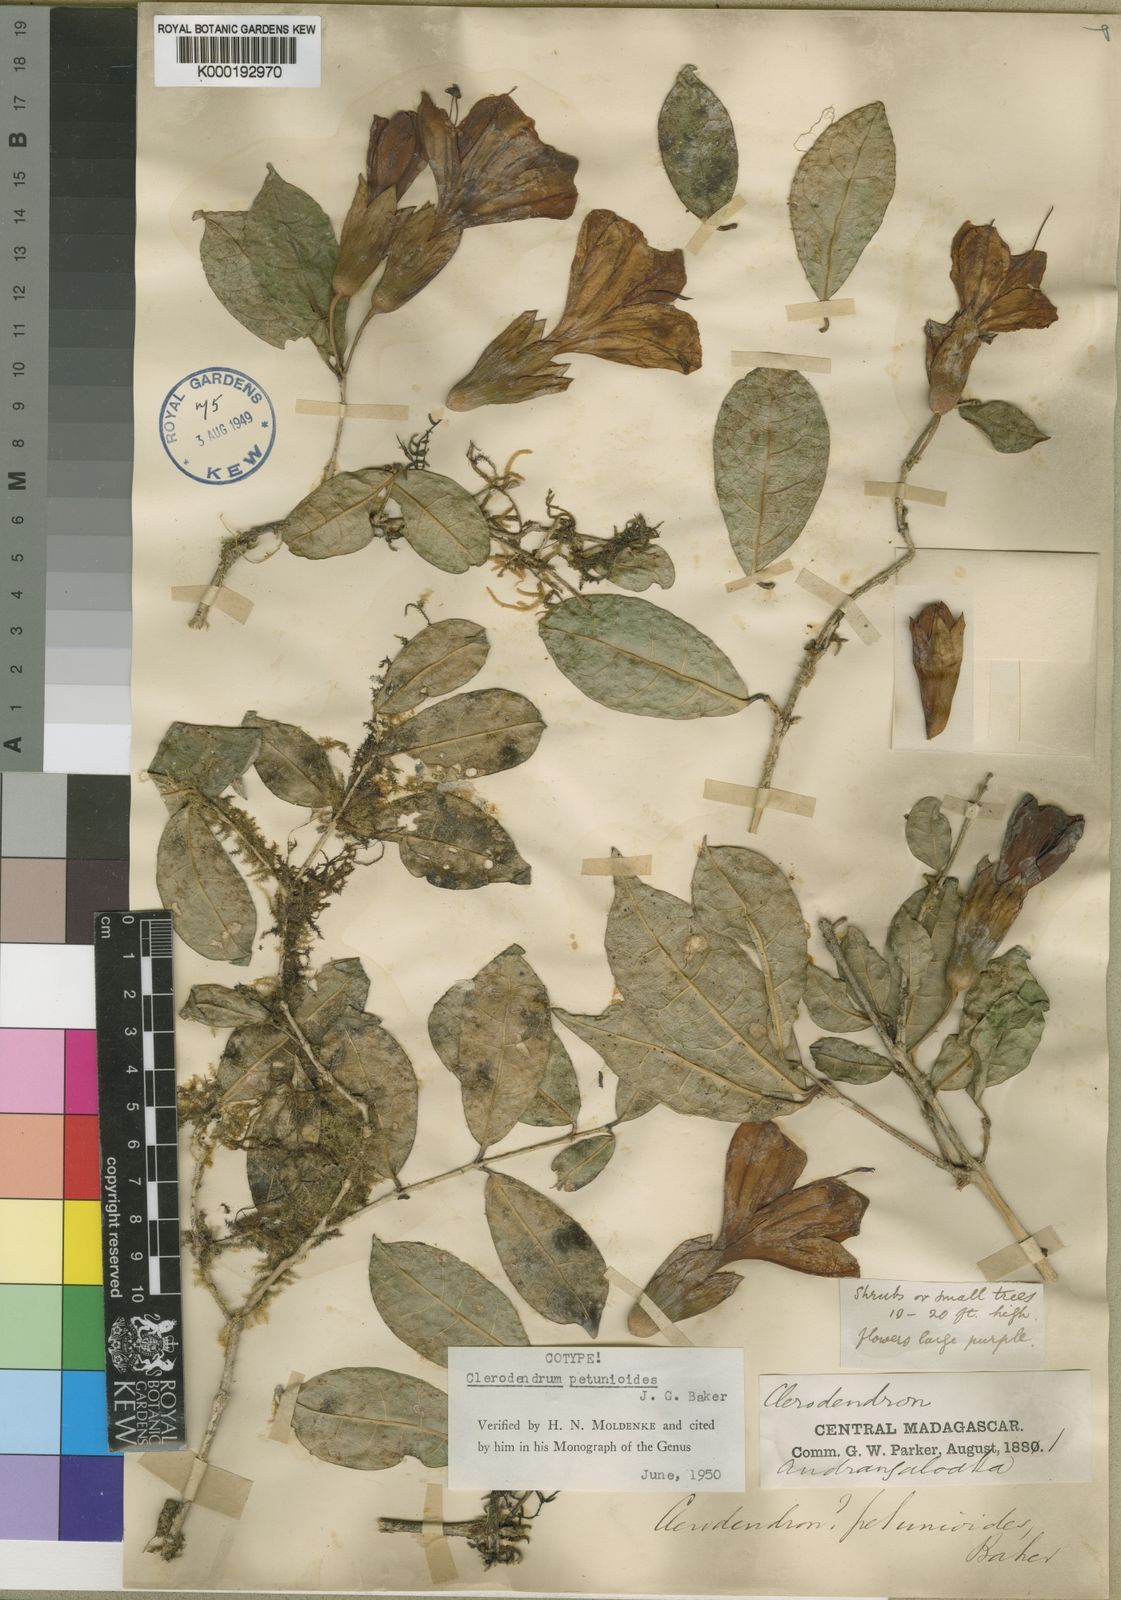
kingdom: Plantae
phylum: Tracheophyta
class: Magnoliopsida
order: Lamiales
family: Lamiaceae
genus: Clerodendrum
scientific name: Clerodendrum petunioides
